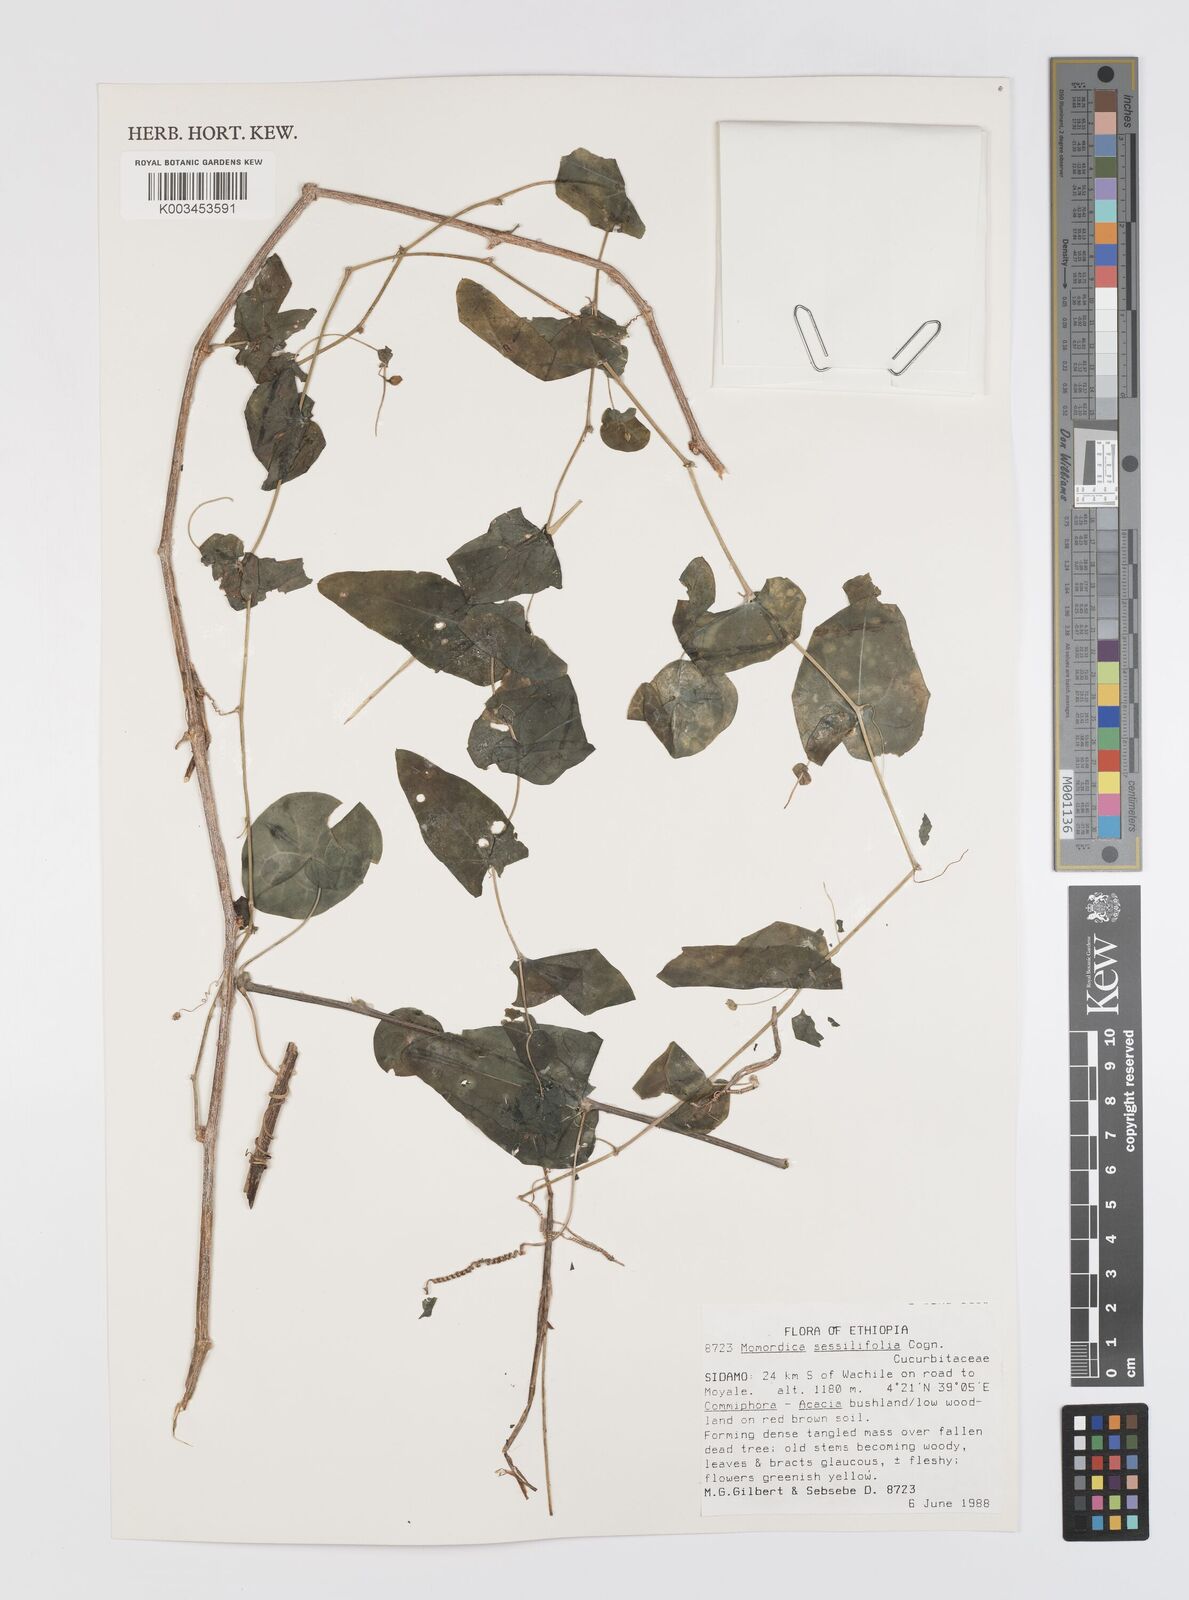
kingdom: Plantae
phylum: Tracheophyta
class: Magnoliopsida
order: Cucurbitales
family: Cucurbitaceae
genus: Momordica
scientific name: Momordica sessilifolia
